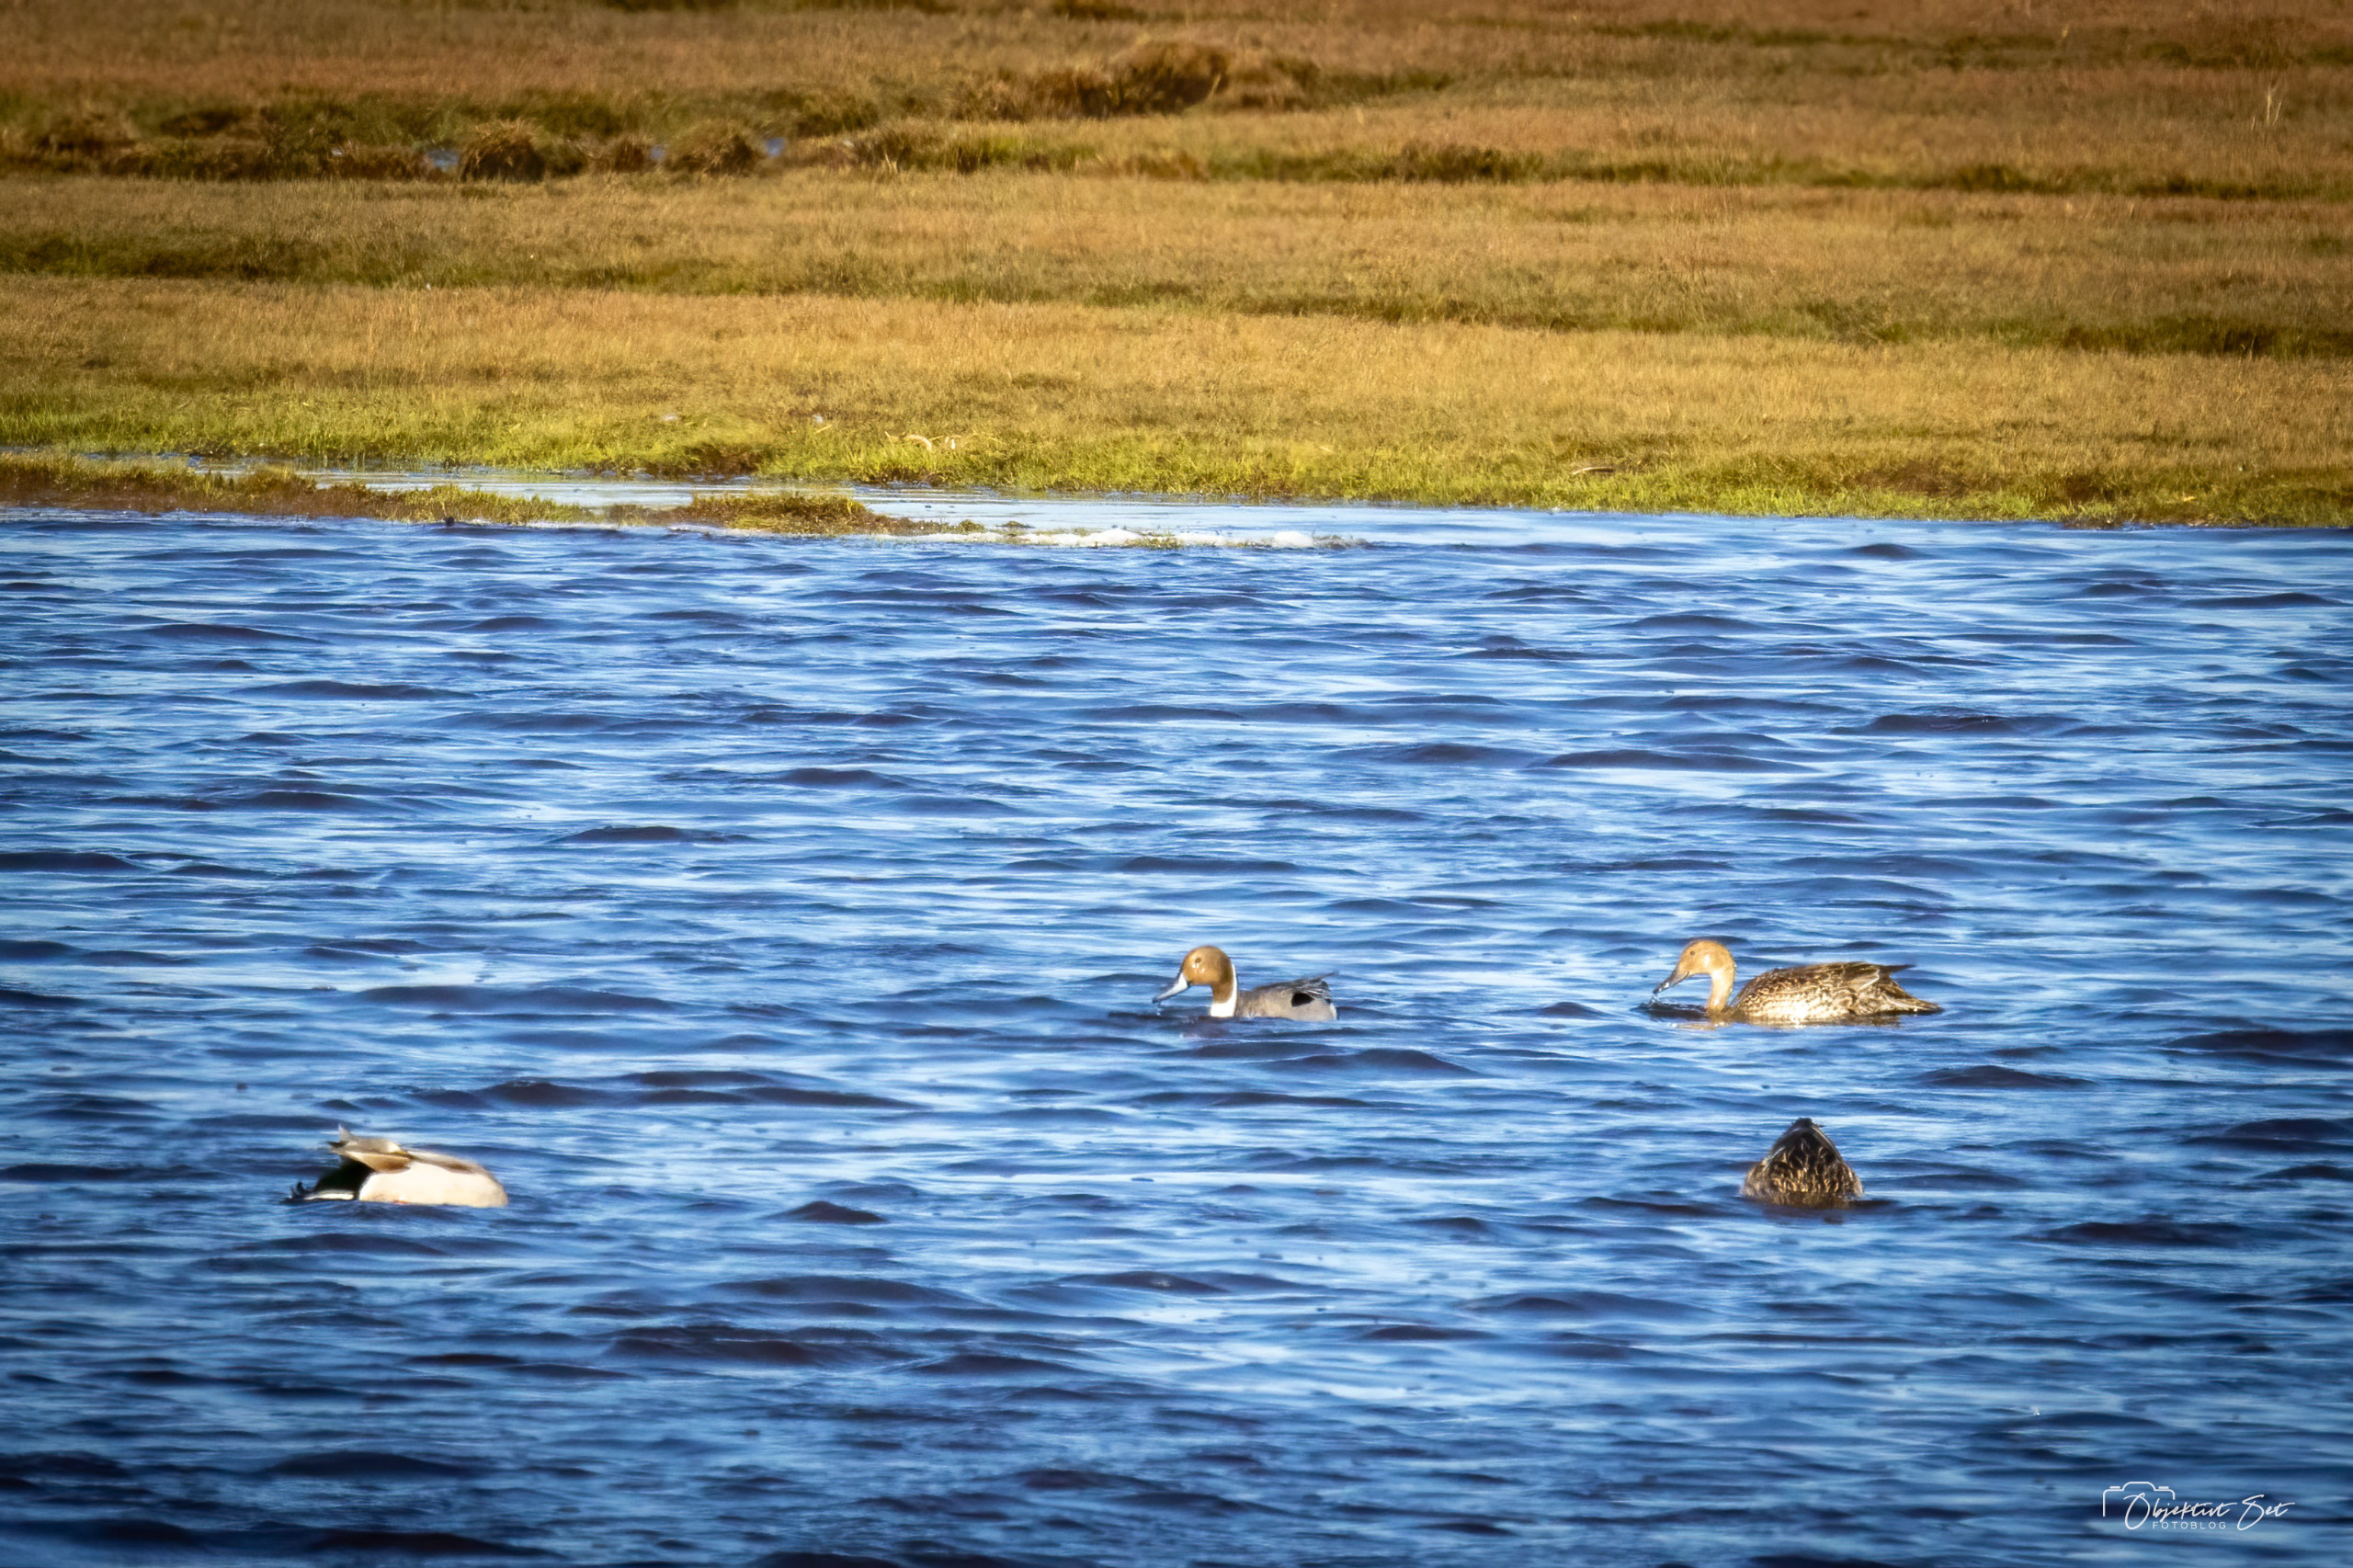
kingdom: Animalia
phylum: Chordata
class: Aves
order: Anseriformes
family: Anatidae
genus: Anas
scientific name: Anas acuta
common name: Spidsand
